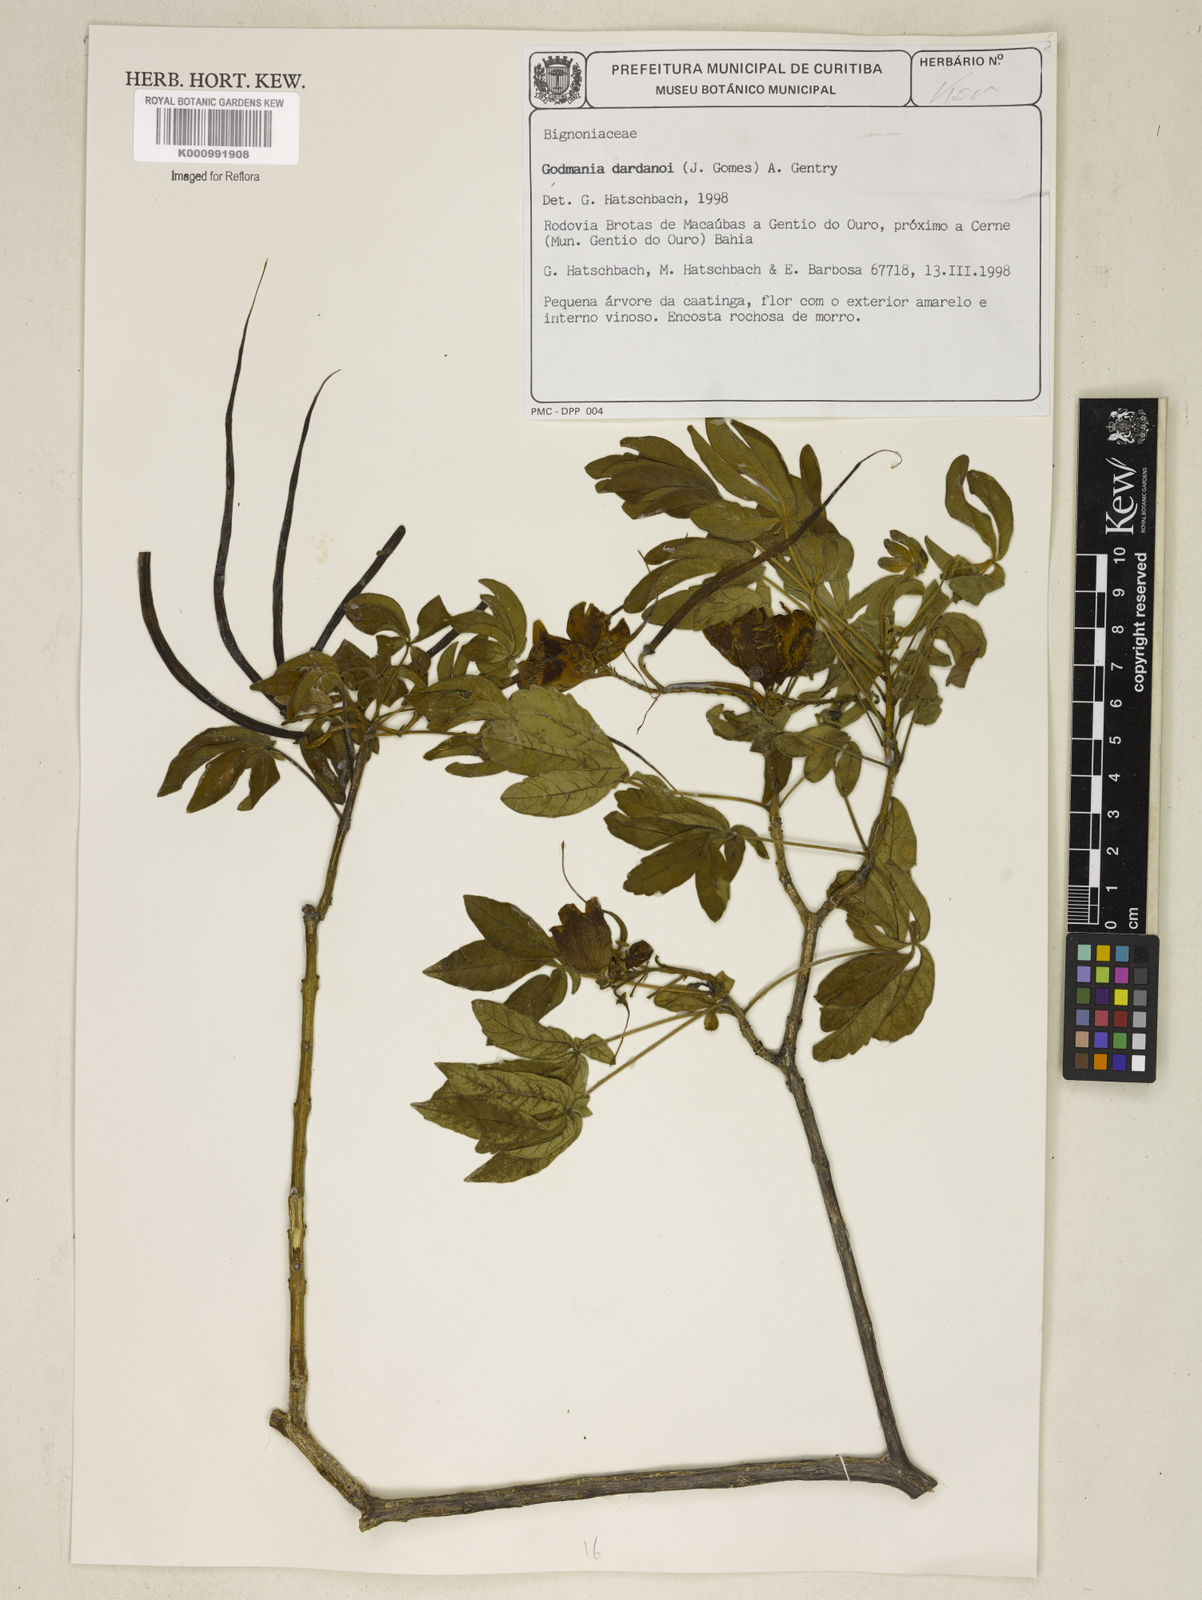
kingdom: Plantae
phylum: Tracheophyta
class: Magnoliopsida
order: Lamiales
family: Bignoniaceae
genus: Godmania
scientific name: Godmania dardanoi
